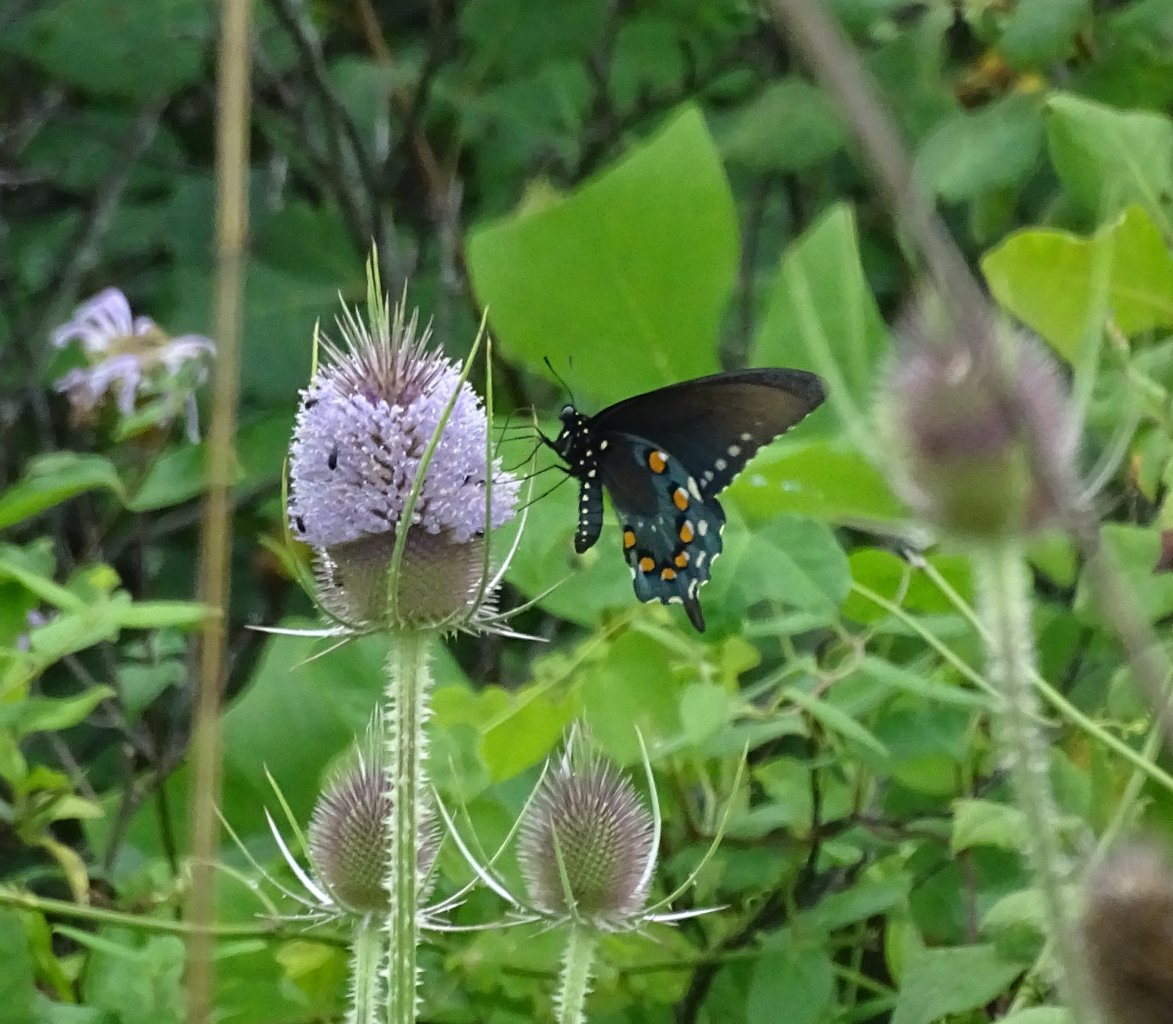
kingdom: Animalia
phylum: Arthropoda
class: Insecta
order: Lepidoptera
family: Papilionidae
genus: Battus
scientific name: Battus philenor
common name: Pipevine Swallowtail
